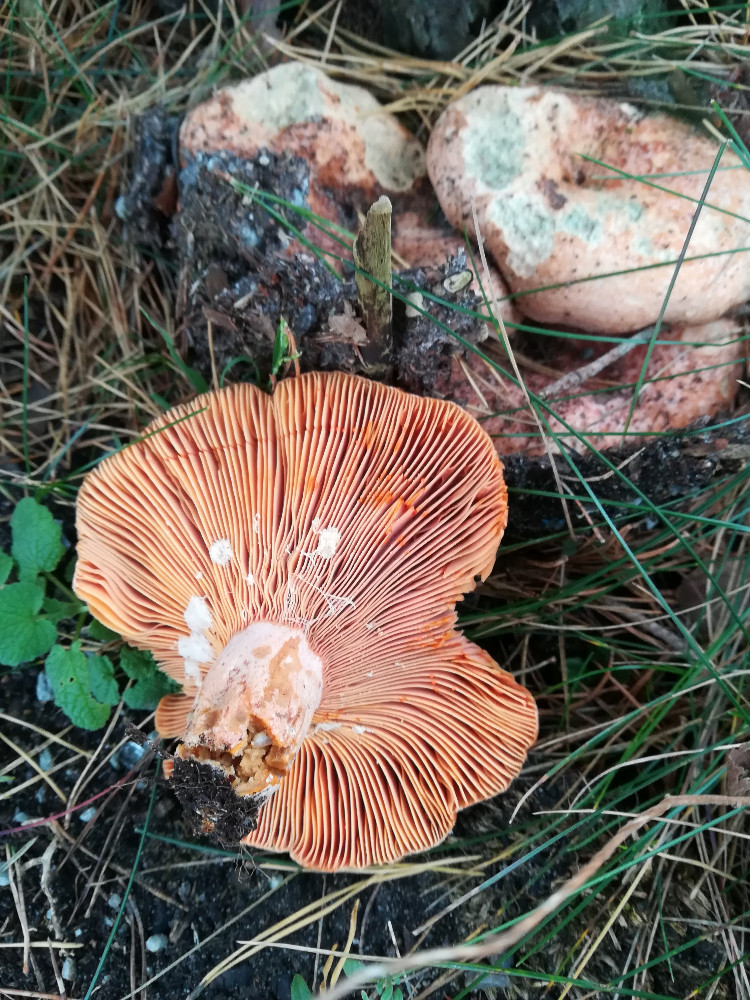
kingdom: Fungi
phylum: Basidiomycota
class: Agaricomycetes
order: Russulales
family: Russulaceae
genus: Lactarius
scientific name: Lactarius deliciosus
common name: velsmagende mælkehat
